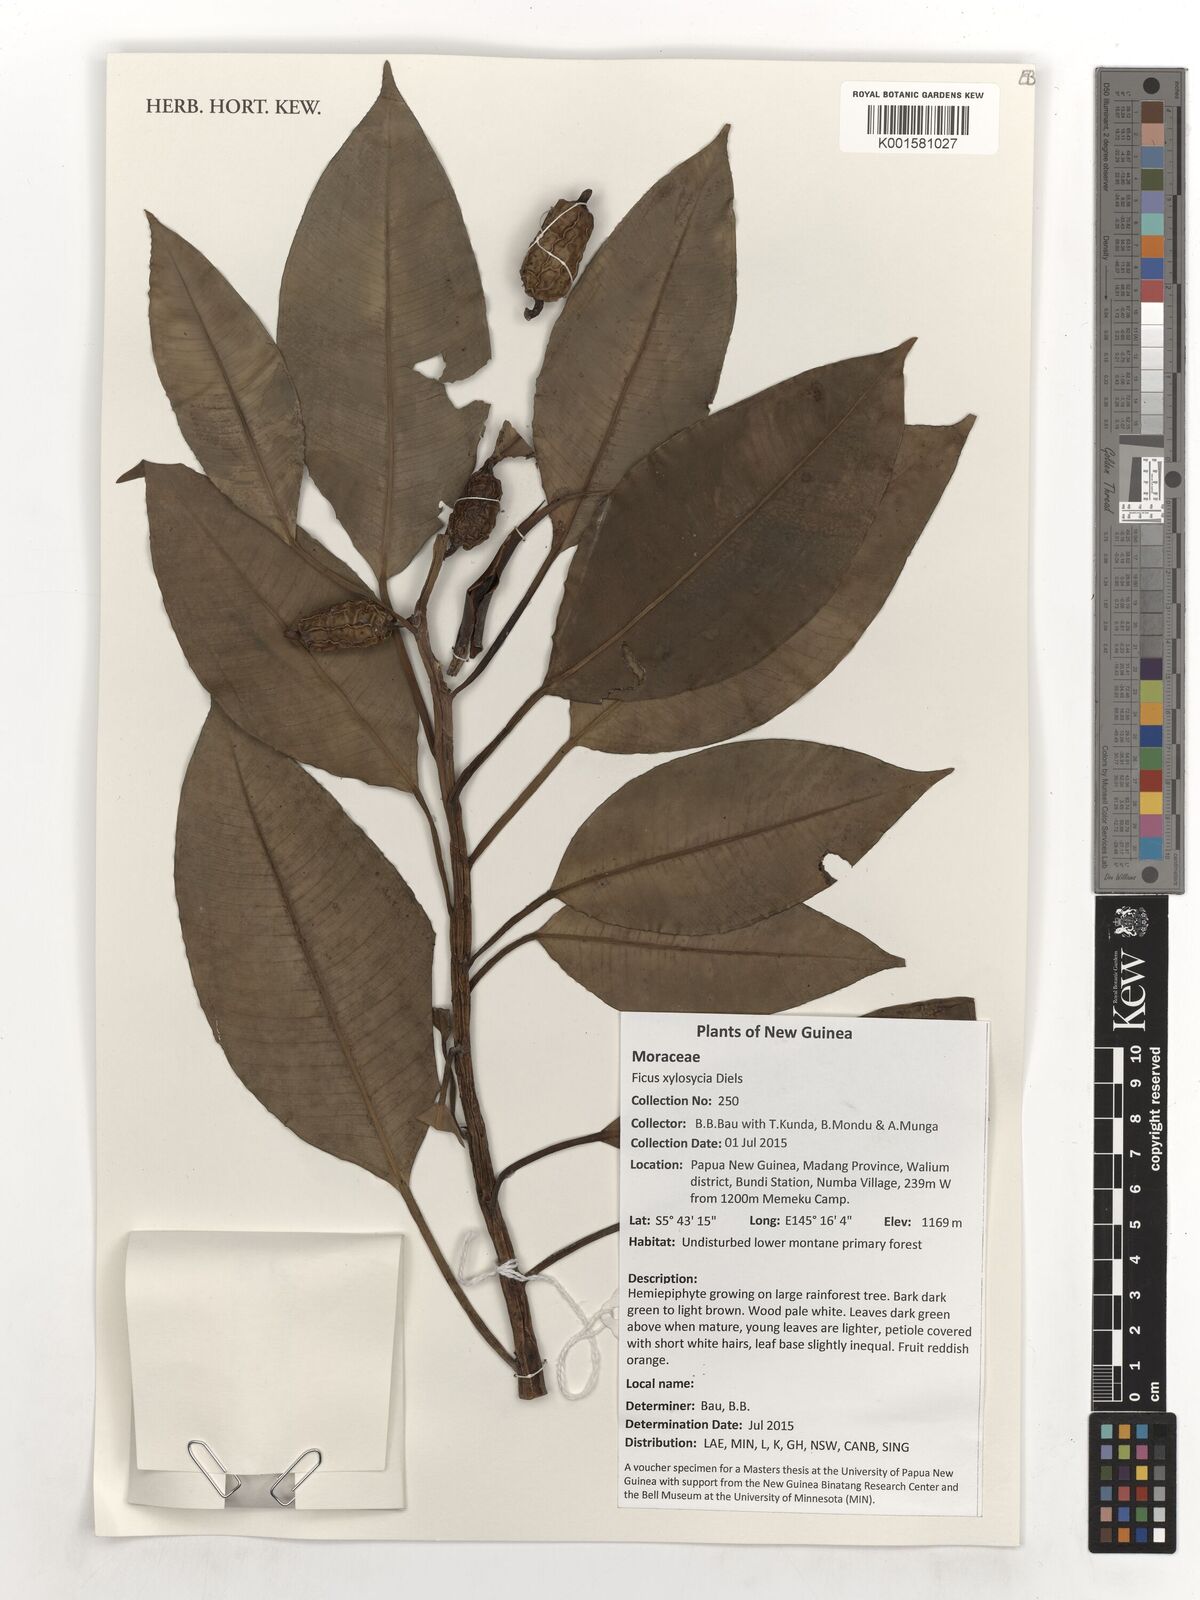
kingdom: Plantae
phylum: Tracheophyta
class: Magnoliopsida
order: Rosales
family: Moraceae
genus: Ficus
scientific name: Ficus hesperidiiformis
